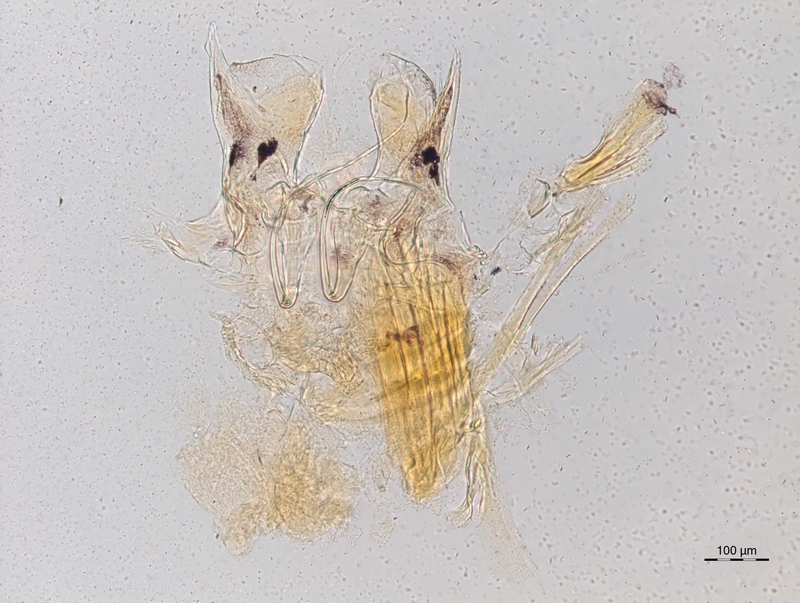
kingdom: Animalia
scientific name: Animalia
